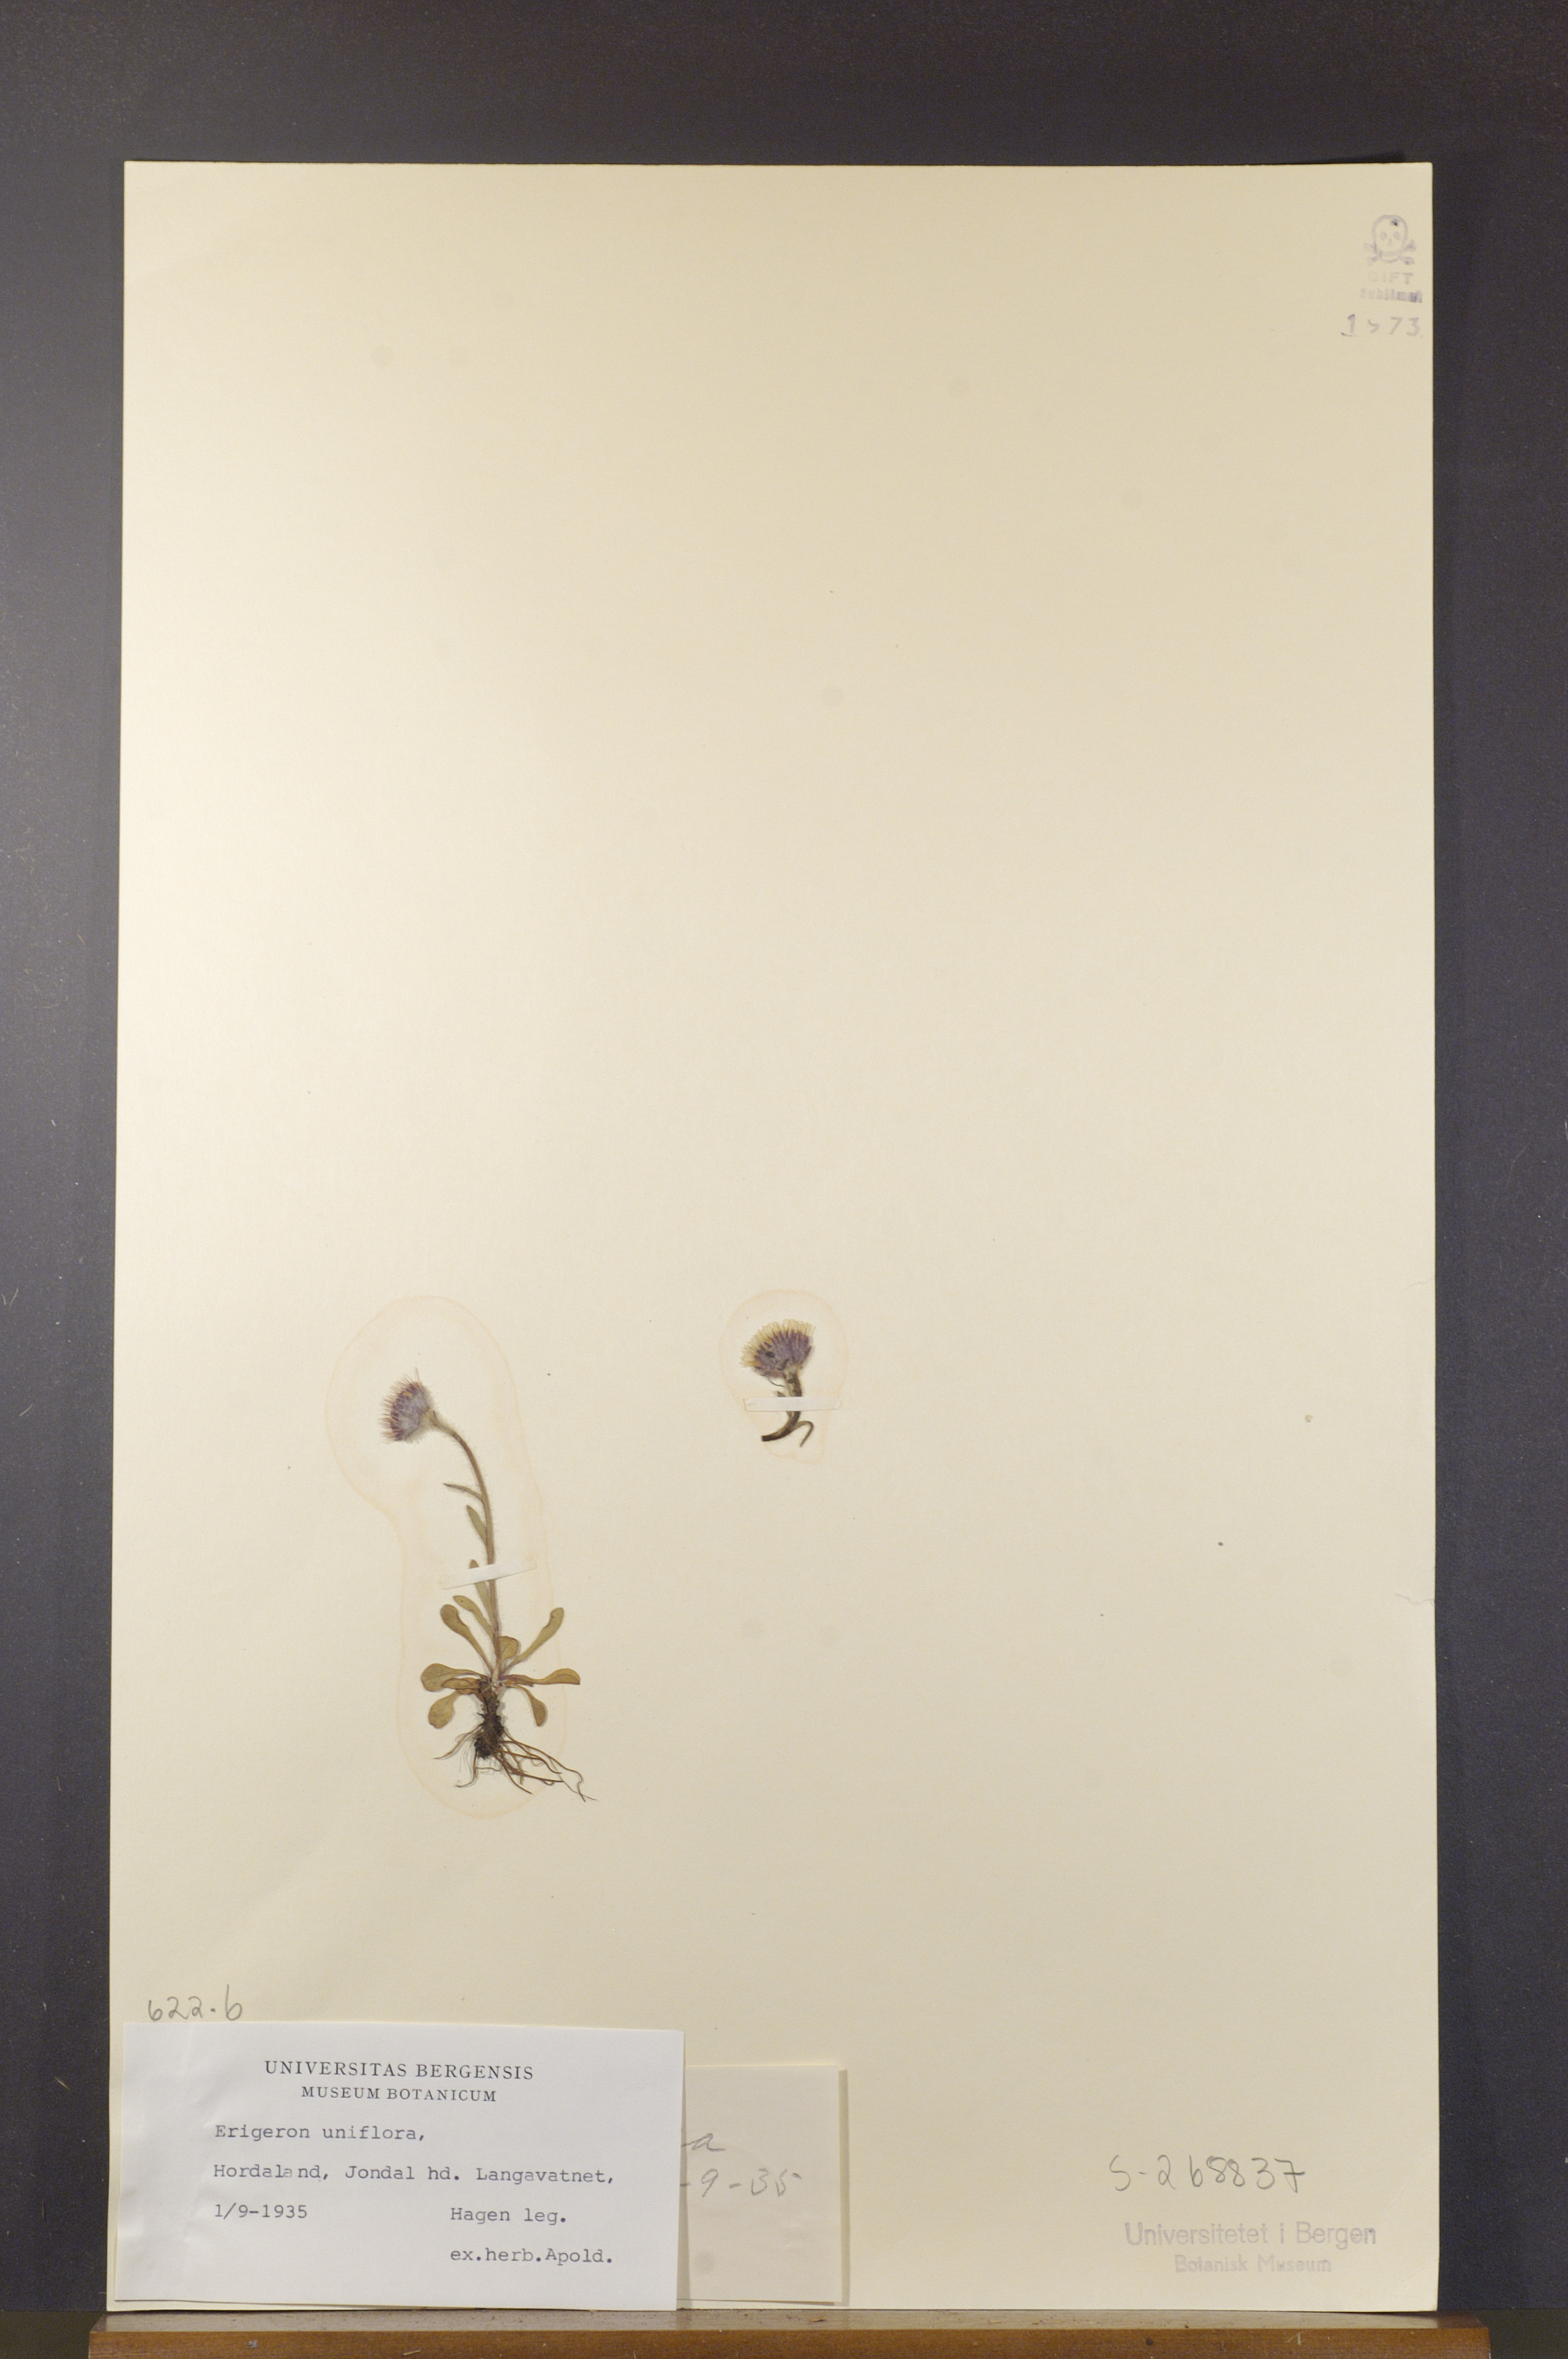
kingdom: Plantae
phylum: Tracheophyta
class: Magnoliopsida
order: Asterales
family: Asteraceae
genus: Erigeron
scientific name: Erigeron uniflorus
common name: Northern daisy
